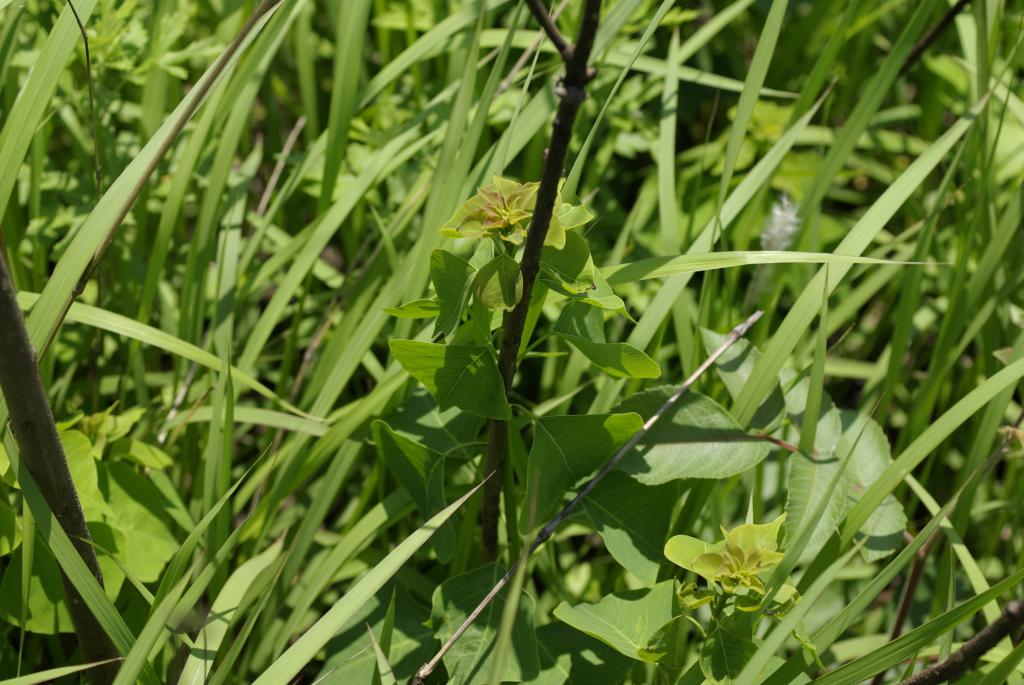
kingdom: Plantae
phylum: Tracheophyta
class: Magnoliopsida
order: Malpighiales
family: Euphorbiaceae
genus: Triadica
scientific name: Triadica sebifera
